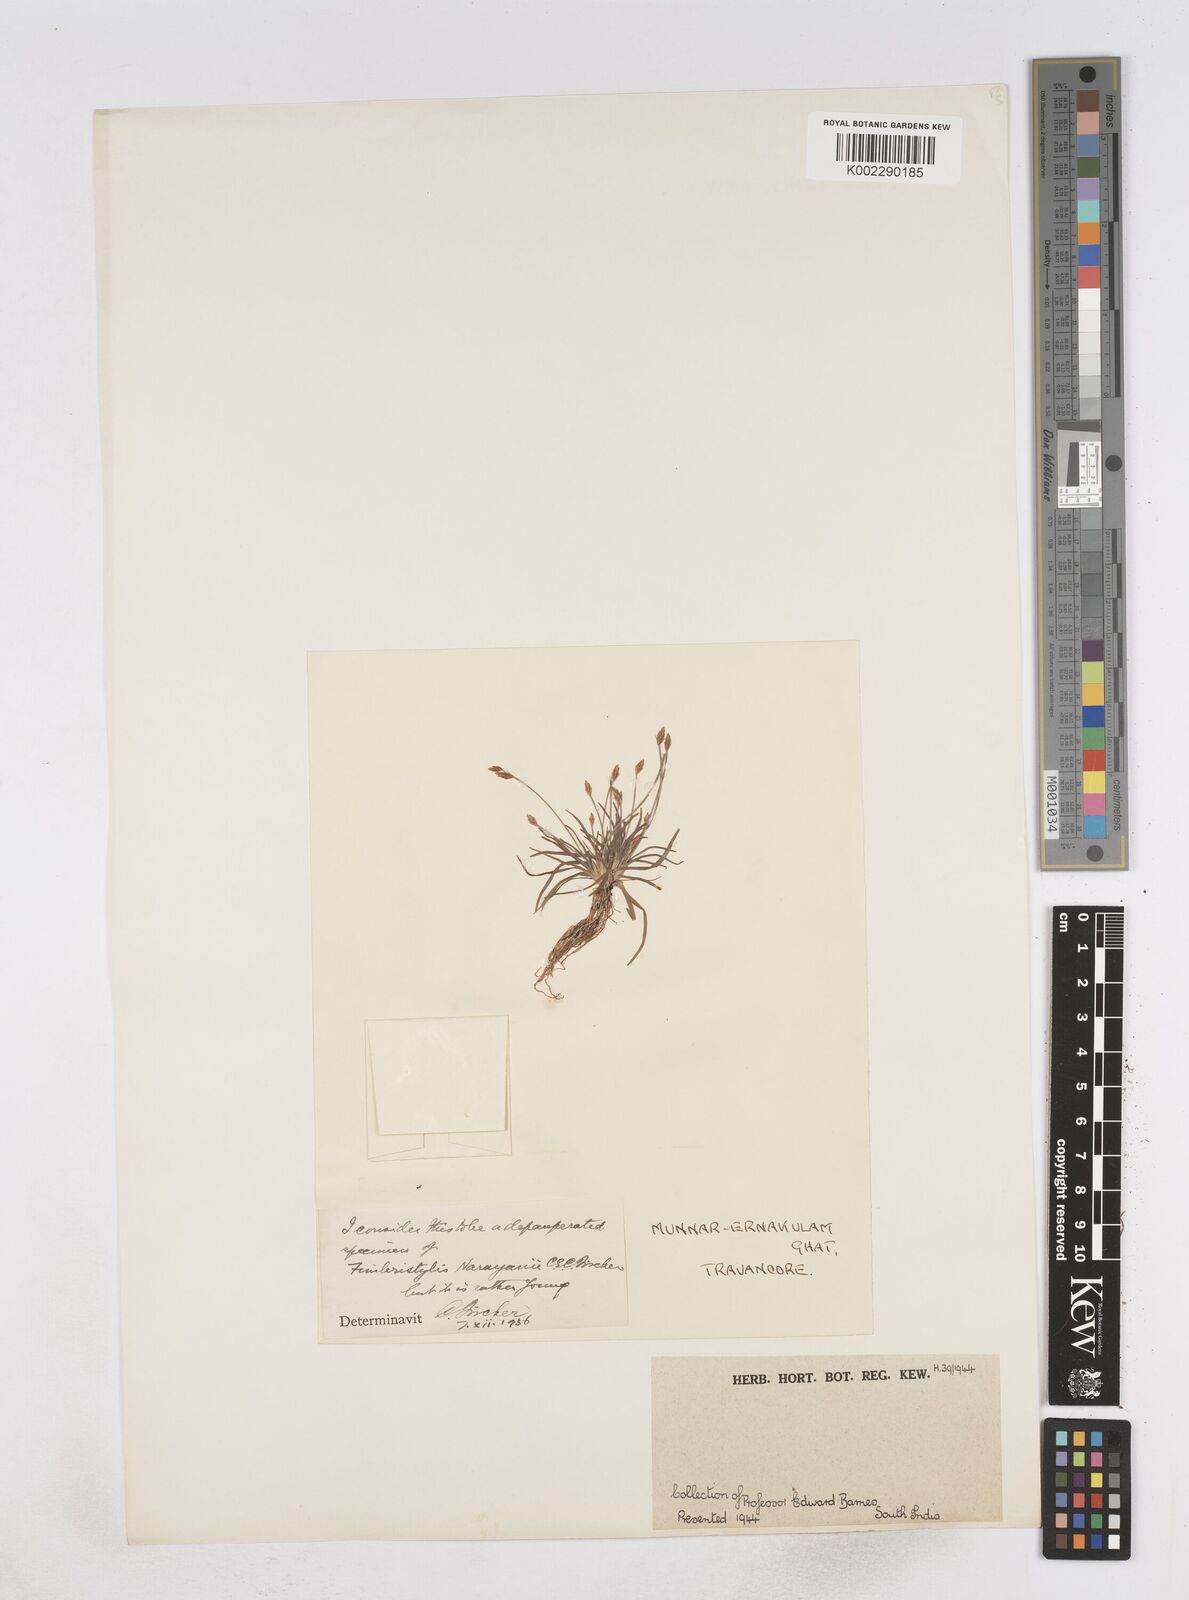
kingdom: Plantae
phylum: Tracheophyta
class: Liliopsida
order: Poales
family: Cyperaceae
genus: Fimbristylis
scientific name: Fimbristylis narayanii
